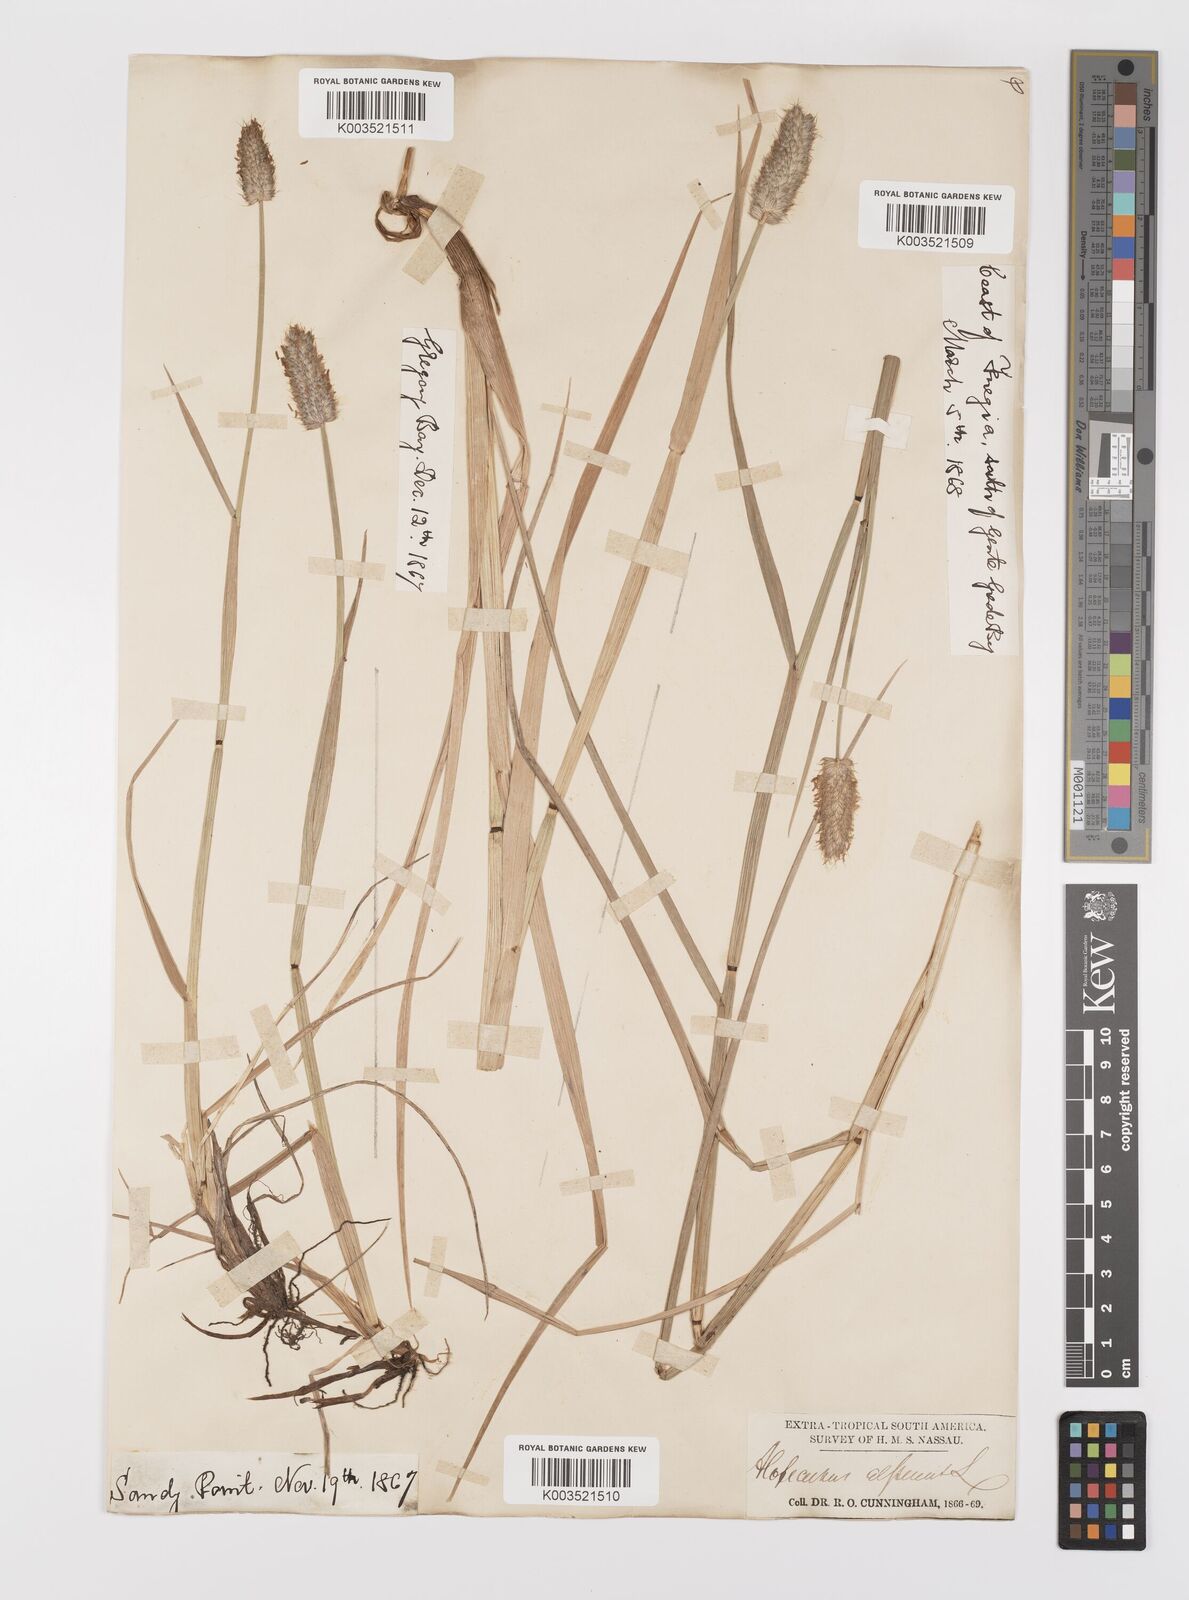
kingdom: Plantae
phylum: Tracheophyta
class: Liliopsida
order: Poales
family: Poaceae
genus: Alopecurus
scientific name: Alopecurus magellanicus
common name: Alpine foxtail
